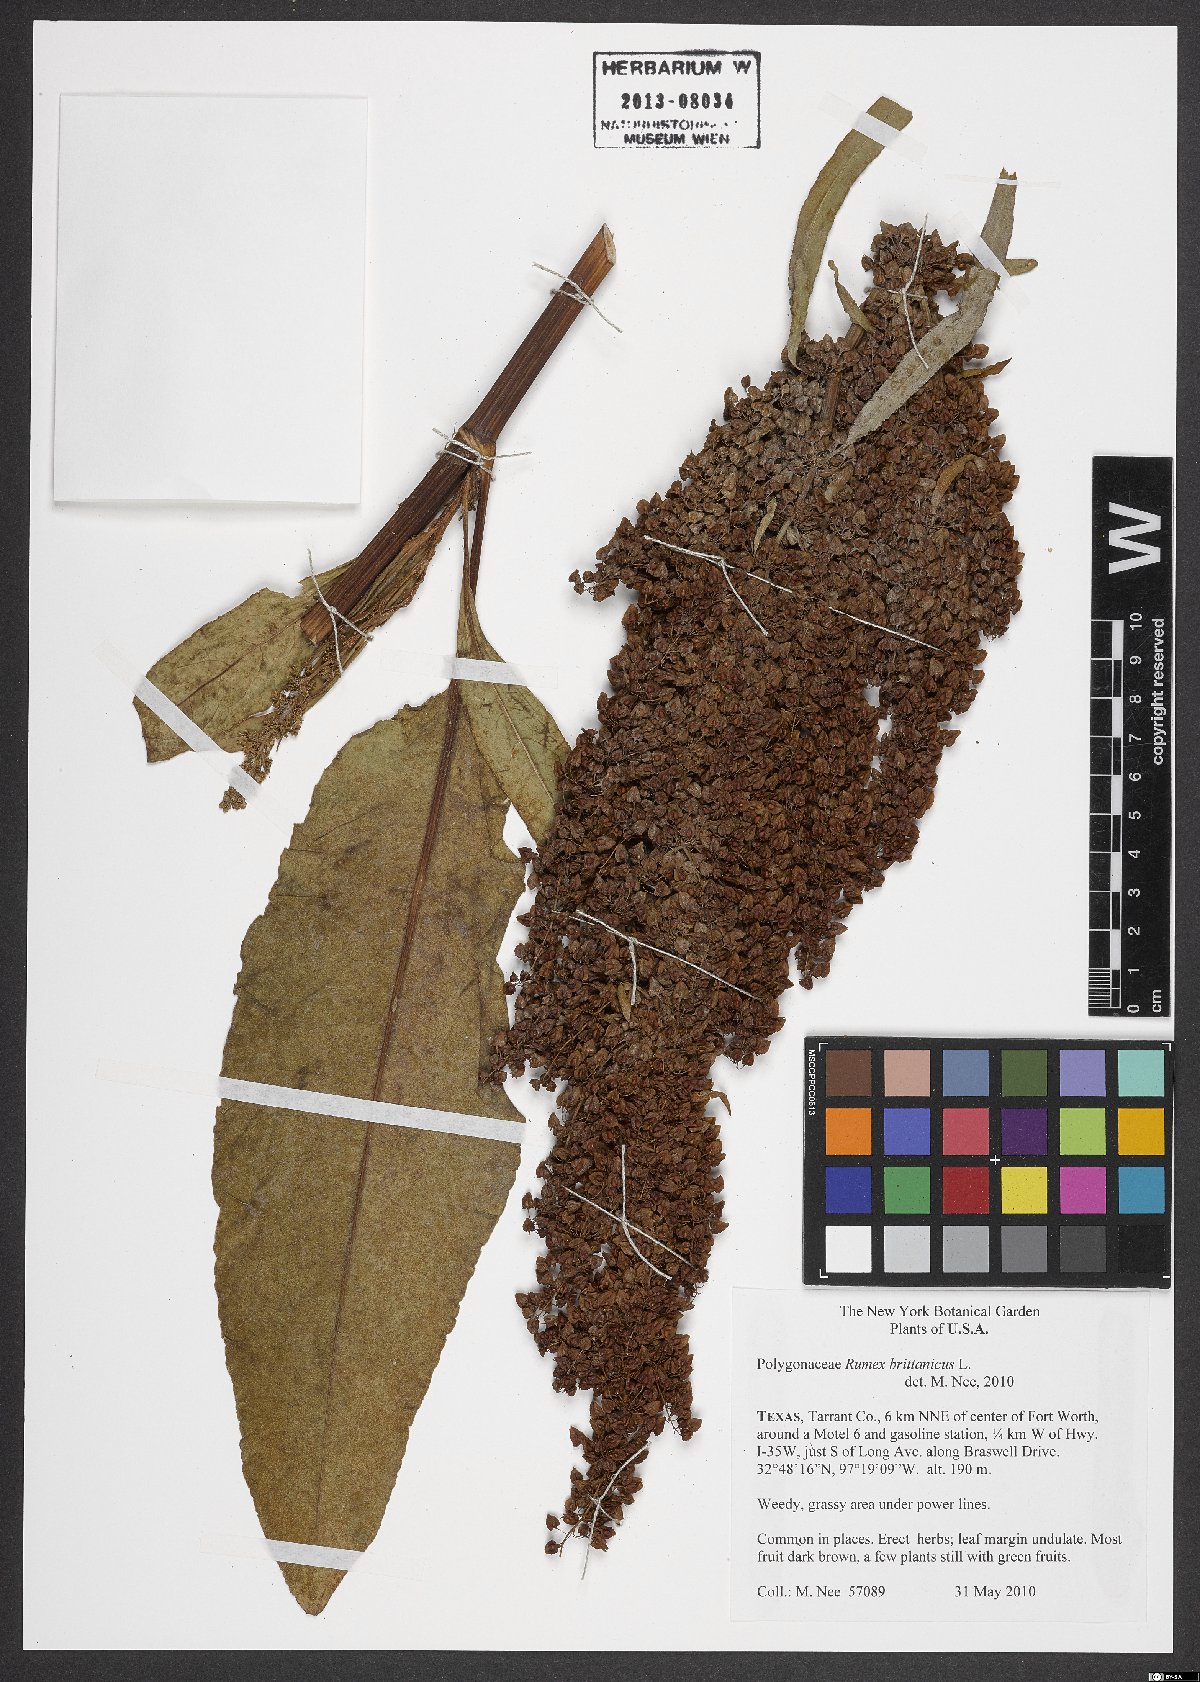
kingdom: Plantae
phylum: Tracheophyta
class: Magnoliopsida
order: Caryophyllales
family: Polygonaceae
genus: Rumex
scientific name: Rumex britannica
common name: British dock
